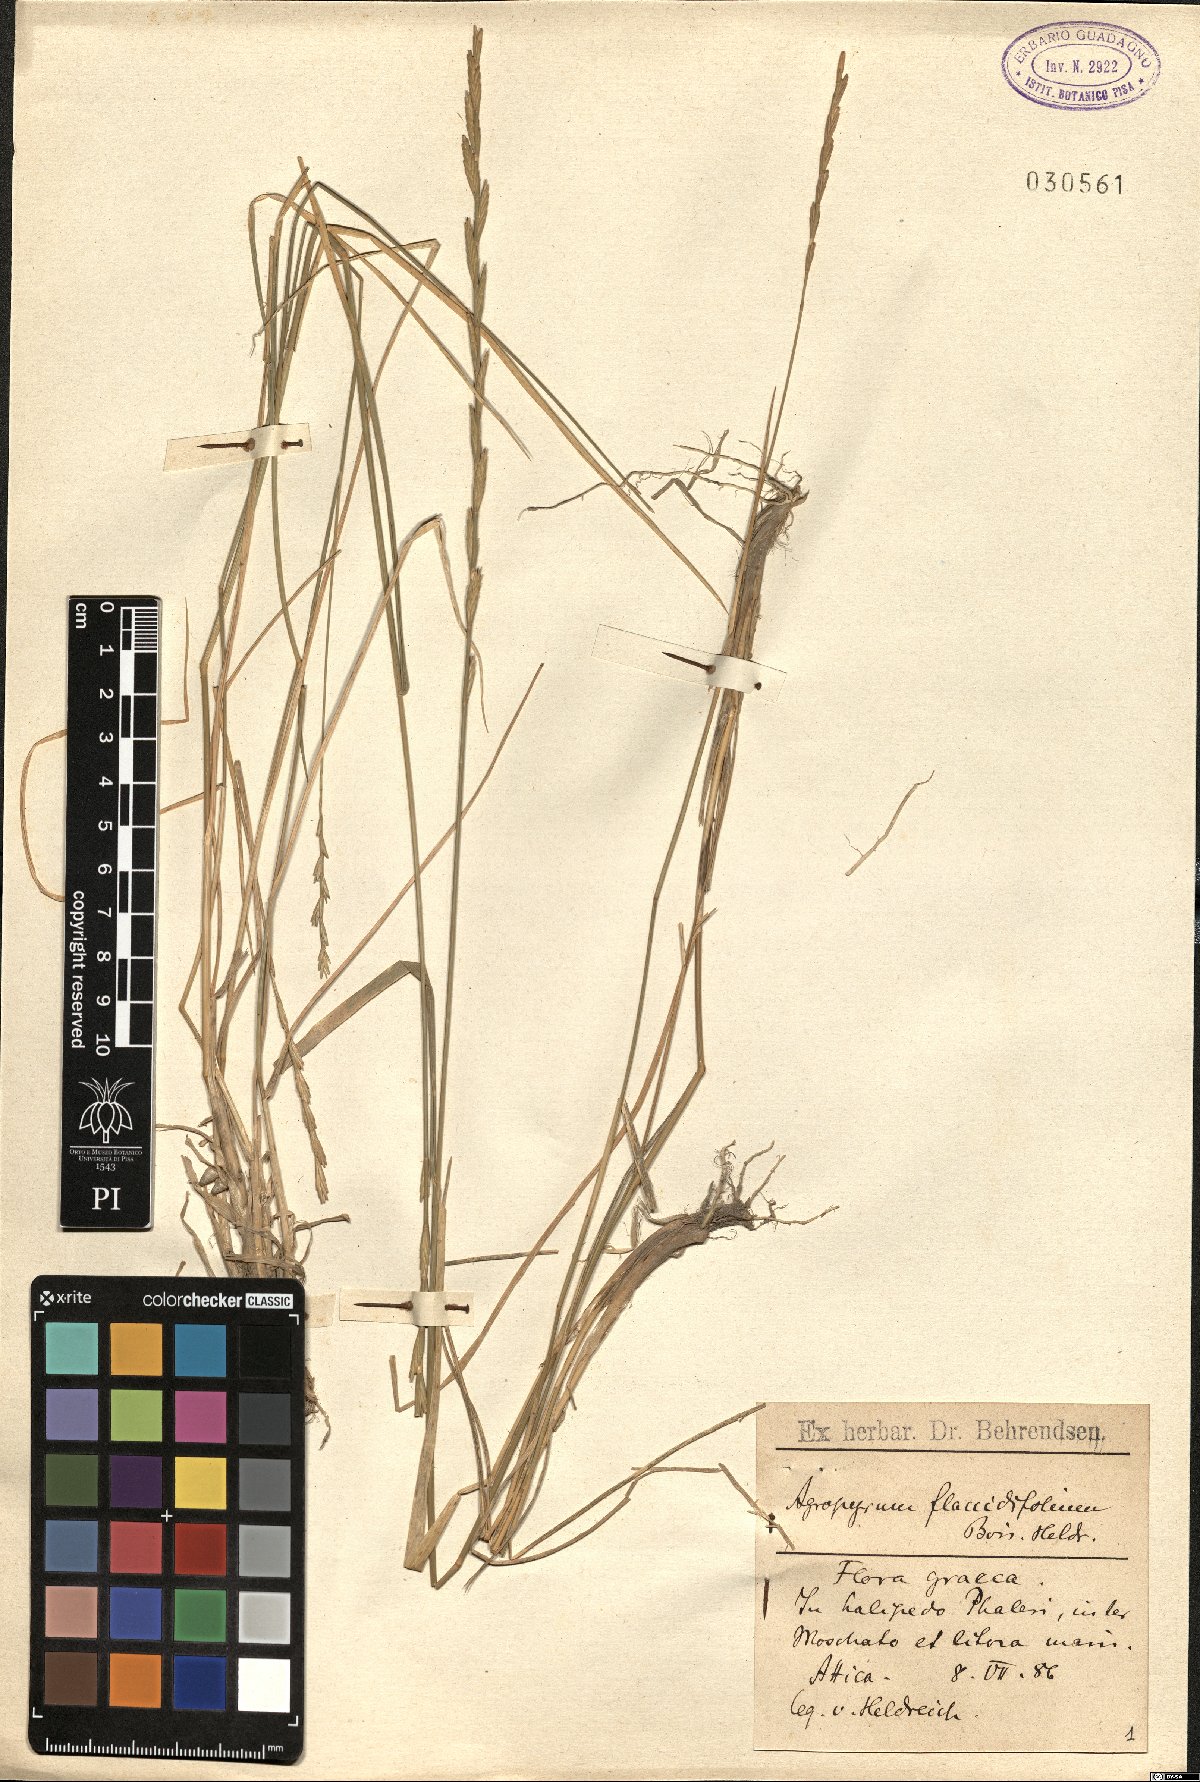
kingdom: Plantae
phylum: Tracheophyta
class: Liliopsida
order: Poales
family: Poaceae
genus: Thinopyrum
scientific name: Thinopyrum flaccidifolium
